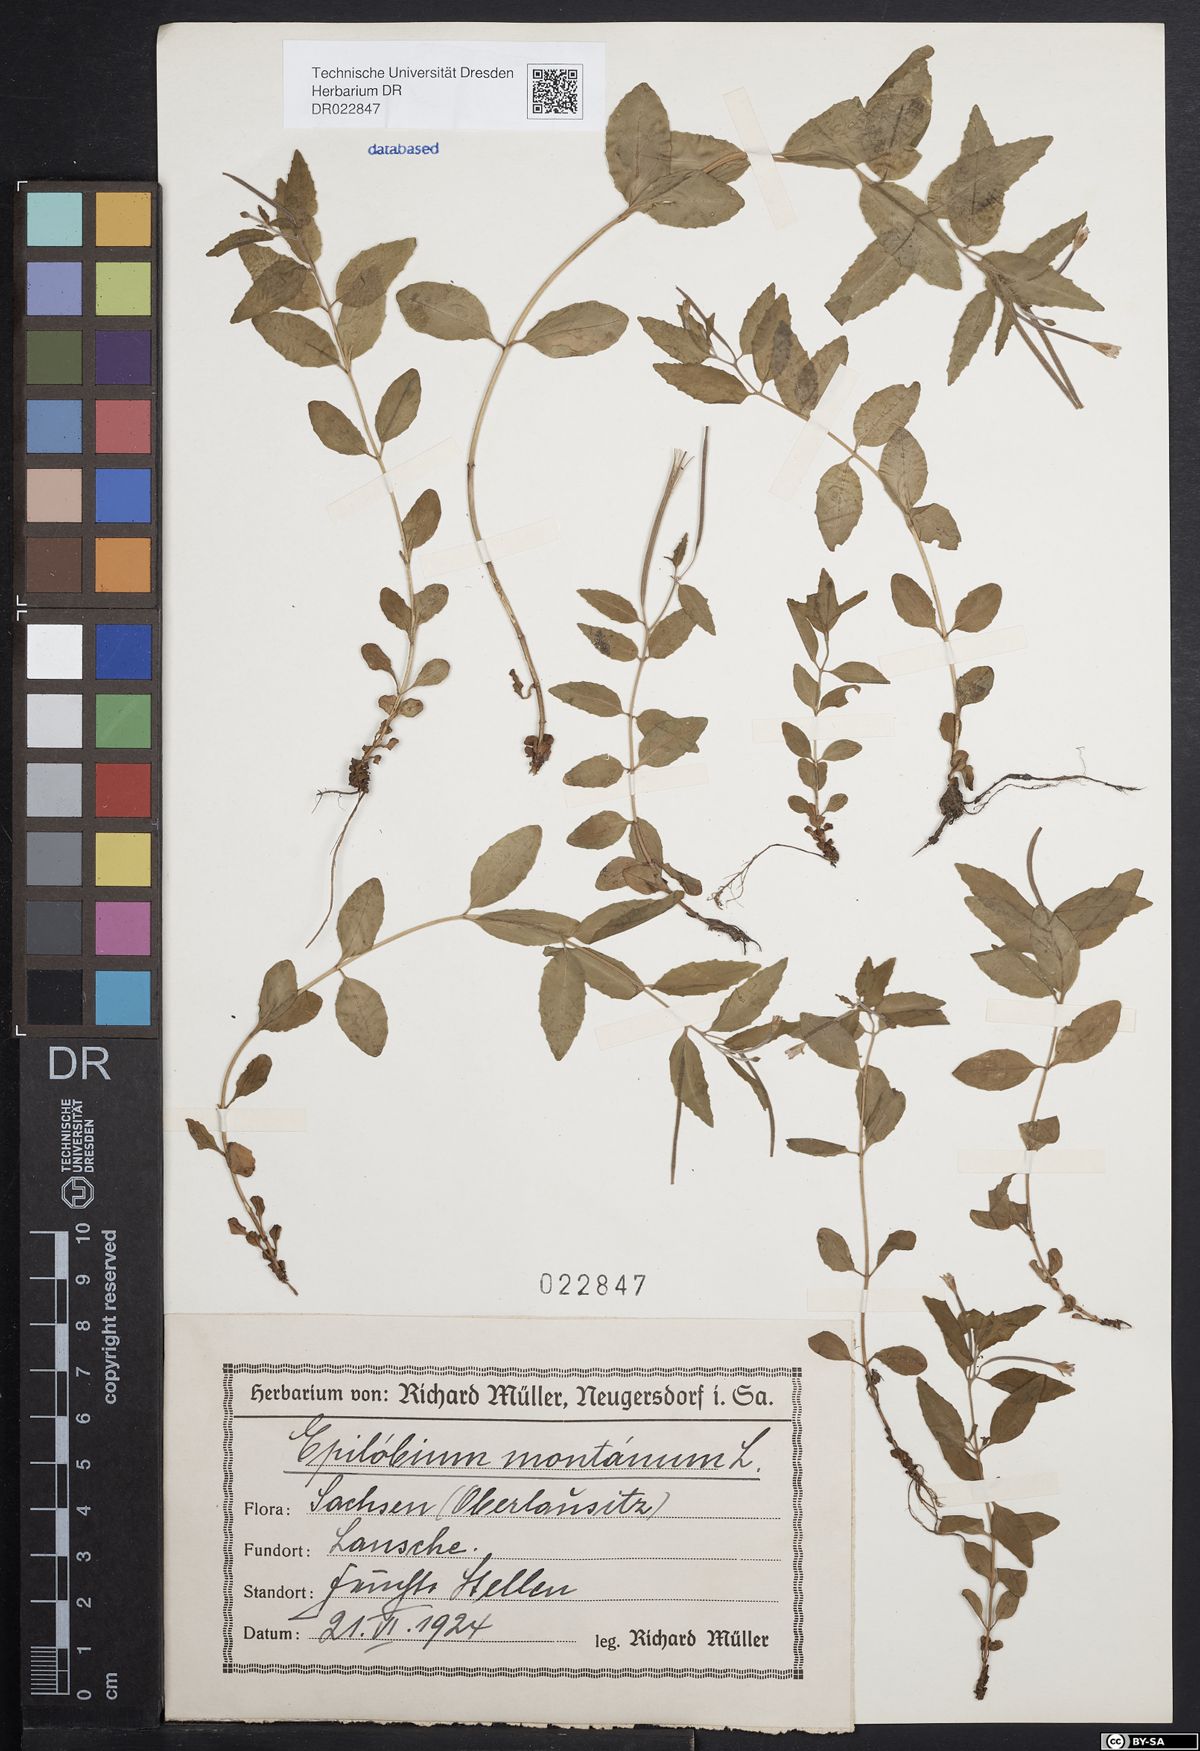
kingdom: Plantae
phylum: Tracheophyta
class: Magnoliopsida
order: Myrtales
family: Onagraceae
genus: Epilobium
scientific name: Epilobium montanum
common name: Broad-leaved willowherb
